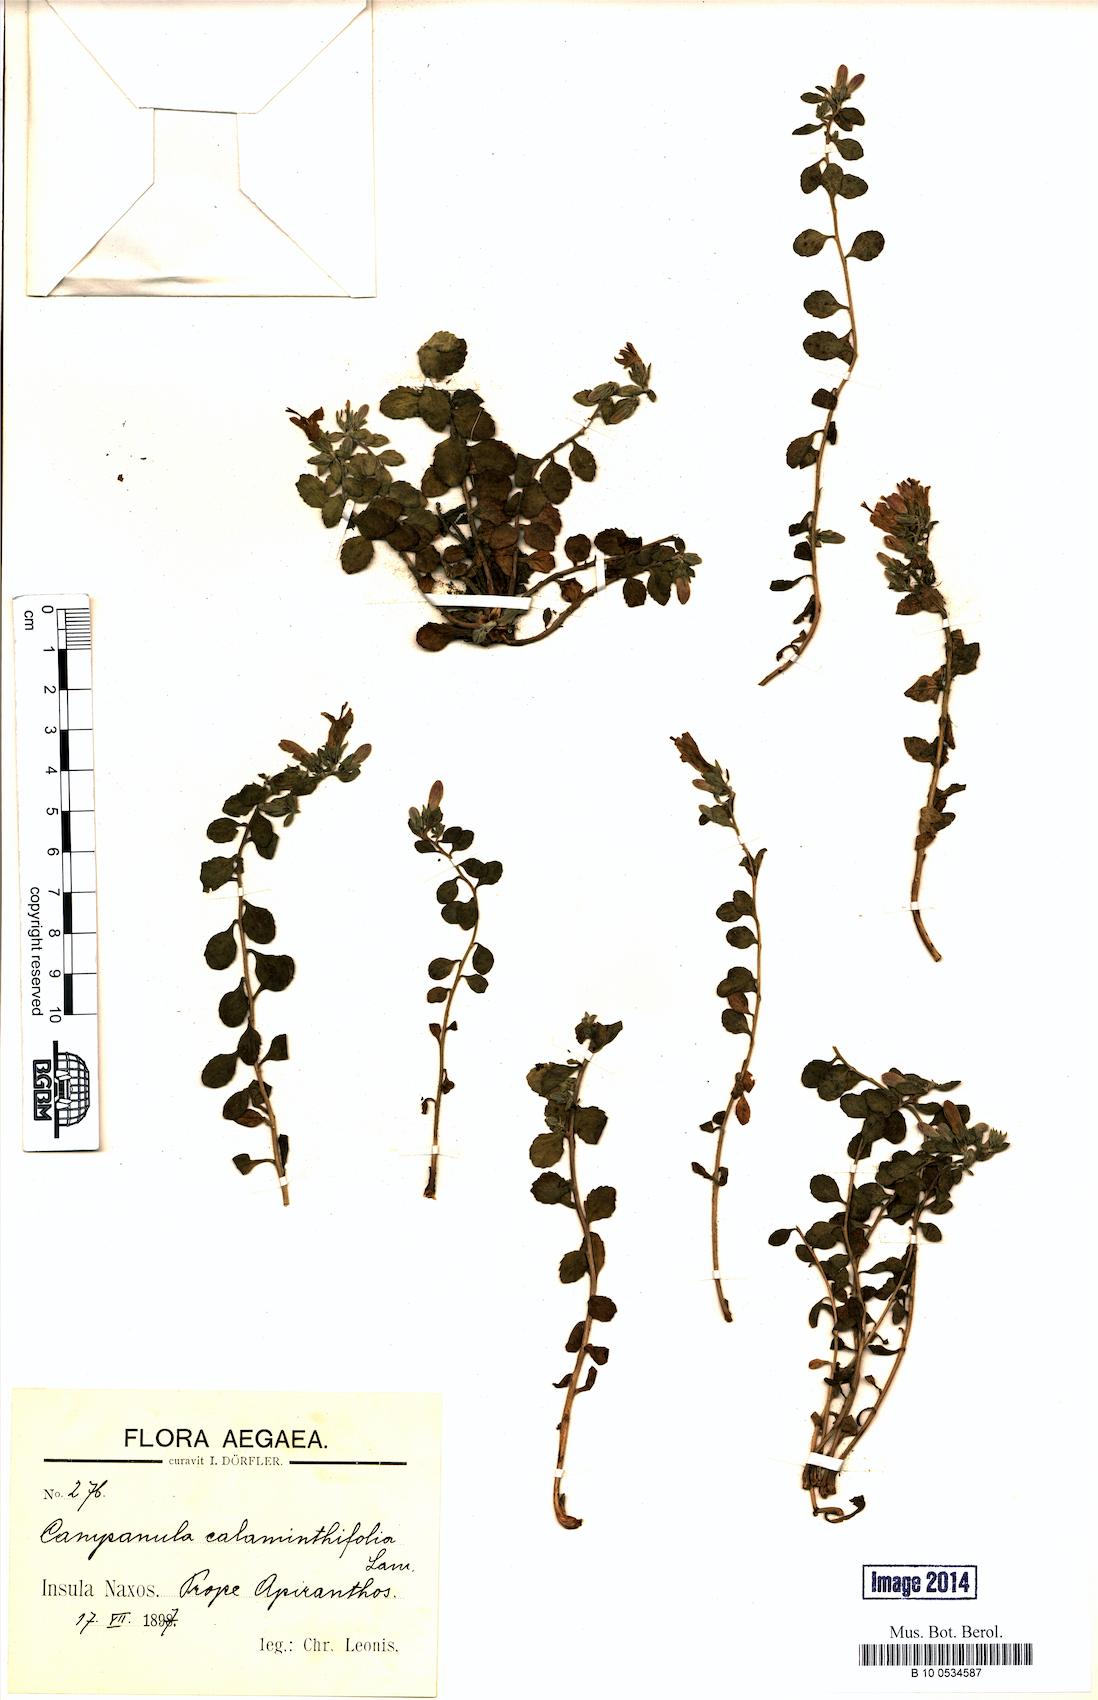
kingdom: Plantae
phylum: Tracheophyta
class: Magnoliopsida
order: Asterales
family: Campanulaceae
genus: Campanula
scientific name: Campanula calaminthifolia
